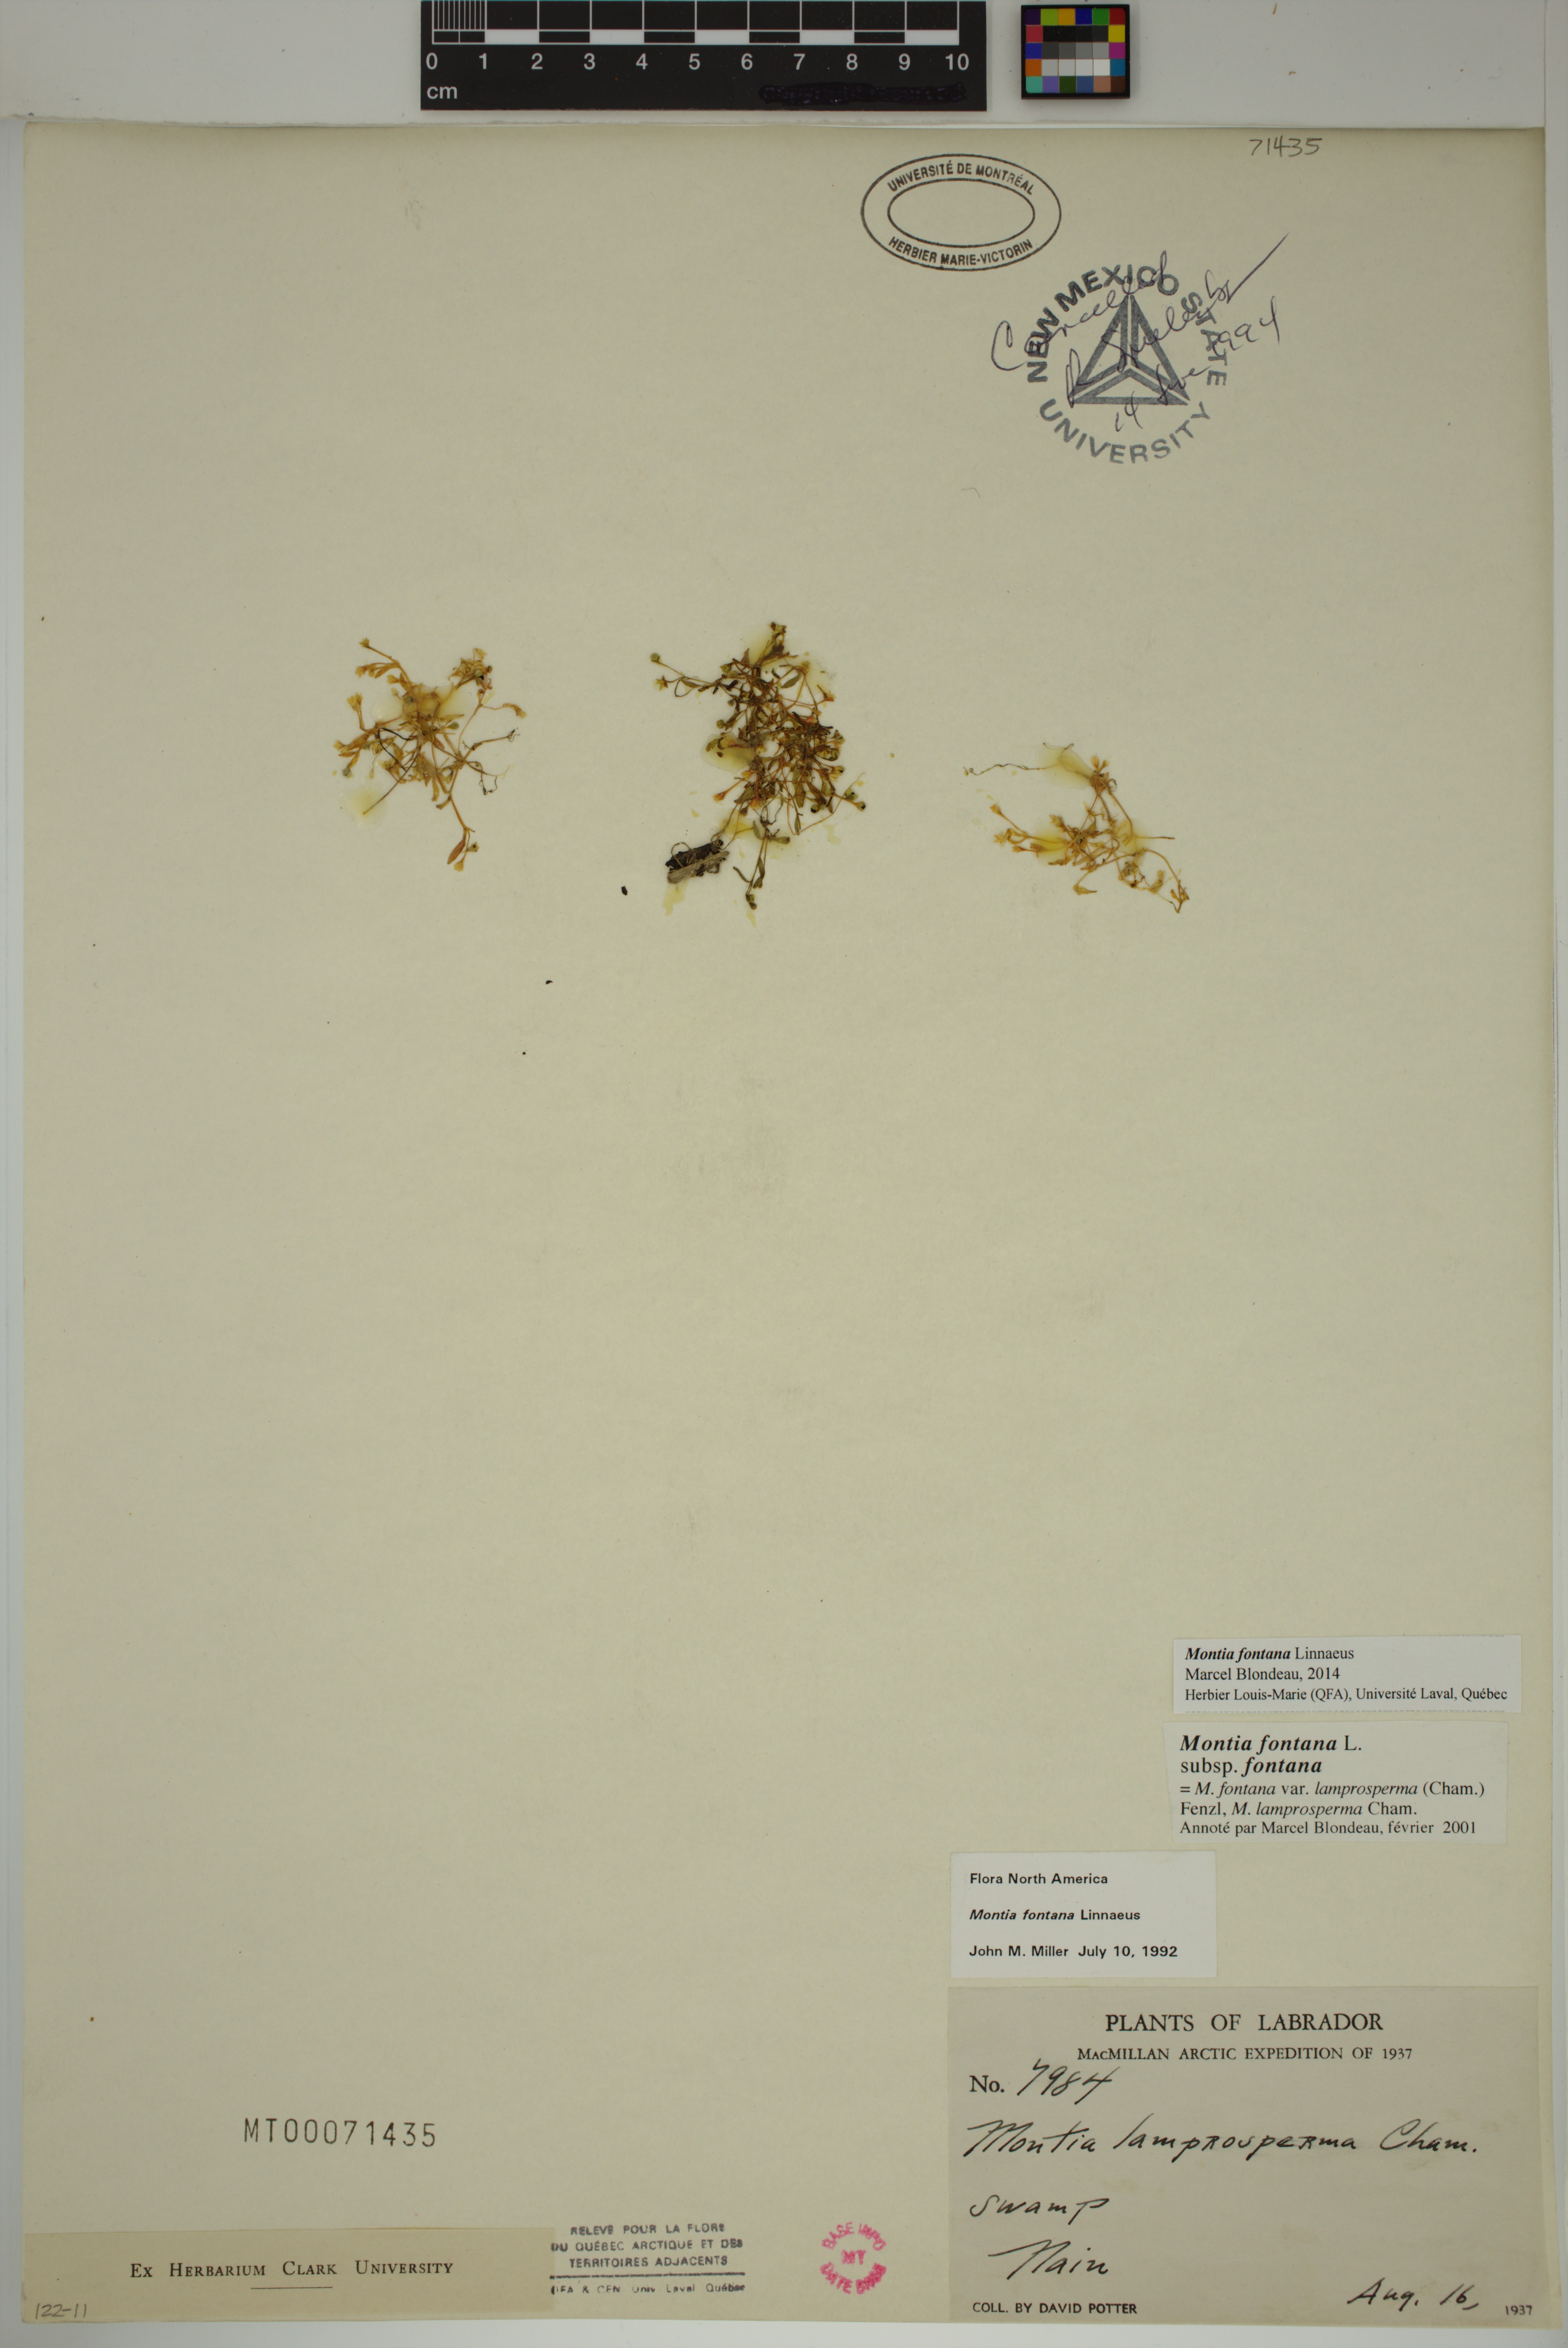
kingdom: Plantae
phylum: Tracheophyta
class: Magnoliopsida
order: Caryophyllales
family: Montiaceae
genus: Montia
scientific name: Montia fontana
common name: Blinks
